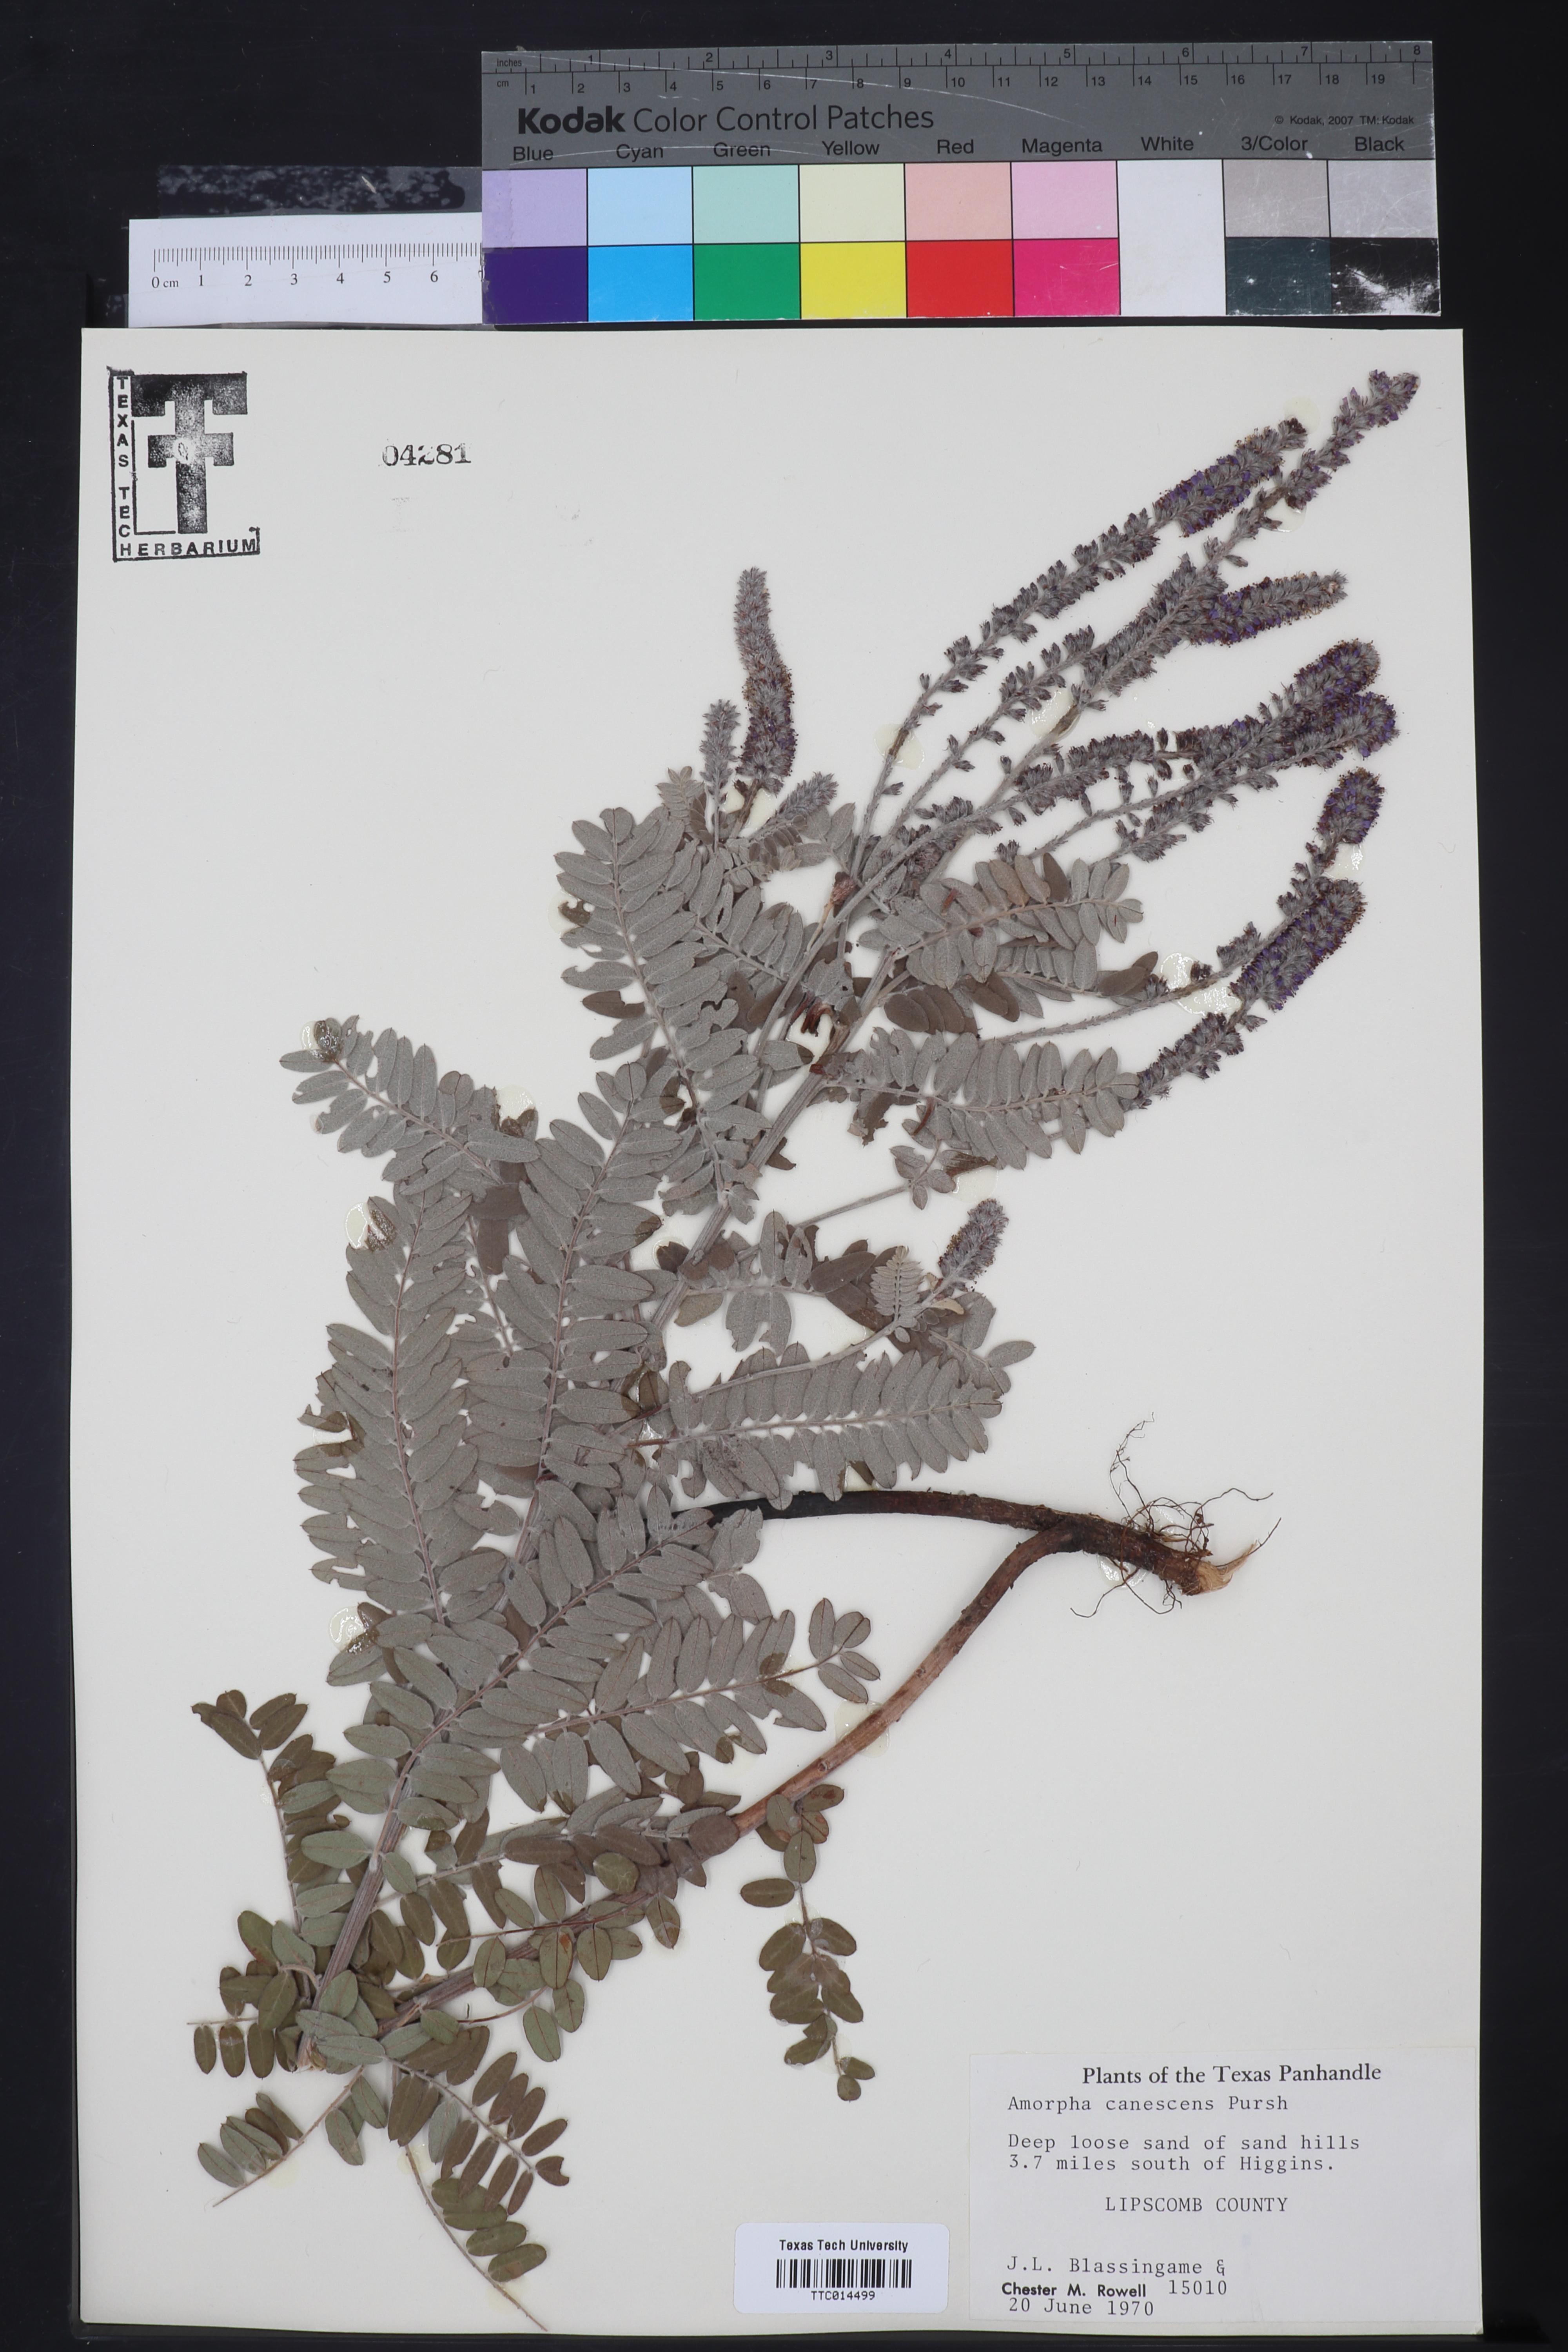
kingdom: Plantae
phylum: Tracheophyta
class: Magnoliopsida
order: Fabales
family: Fabaceae
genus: Amorpha
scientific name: Amorpha canescens
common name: Leadplant
